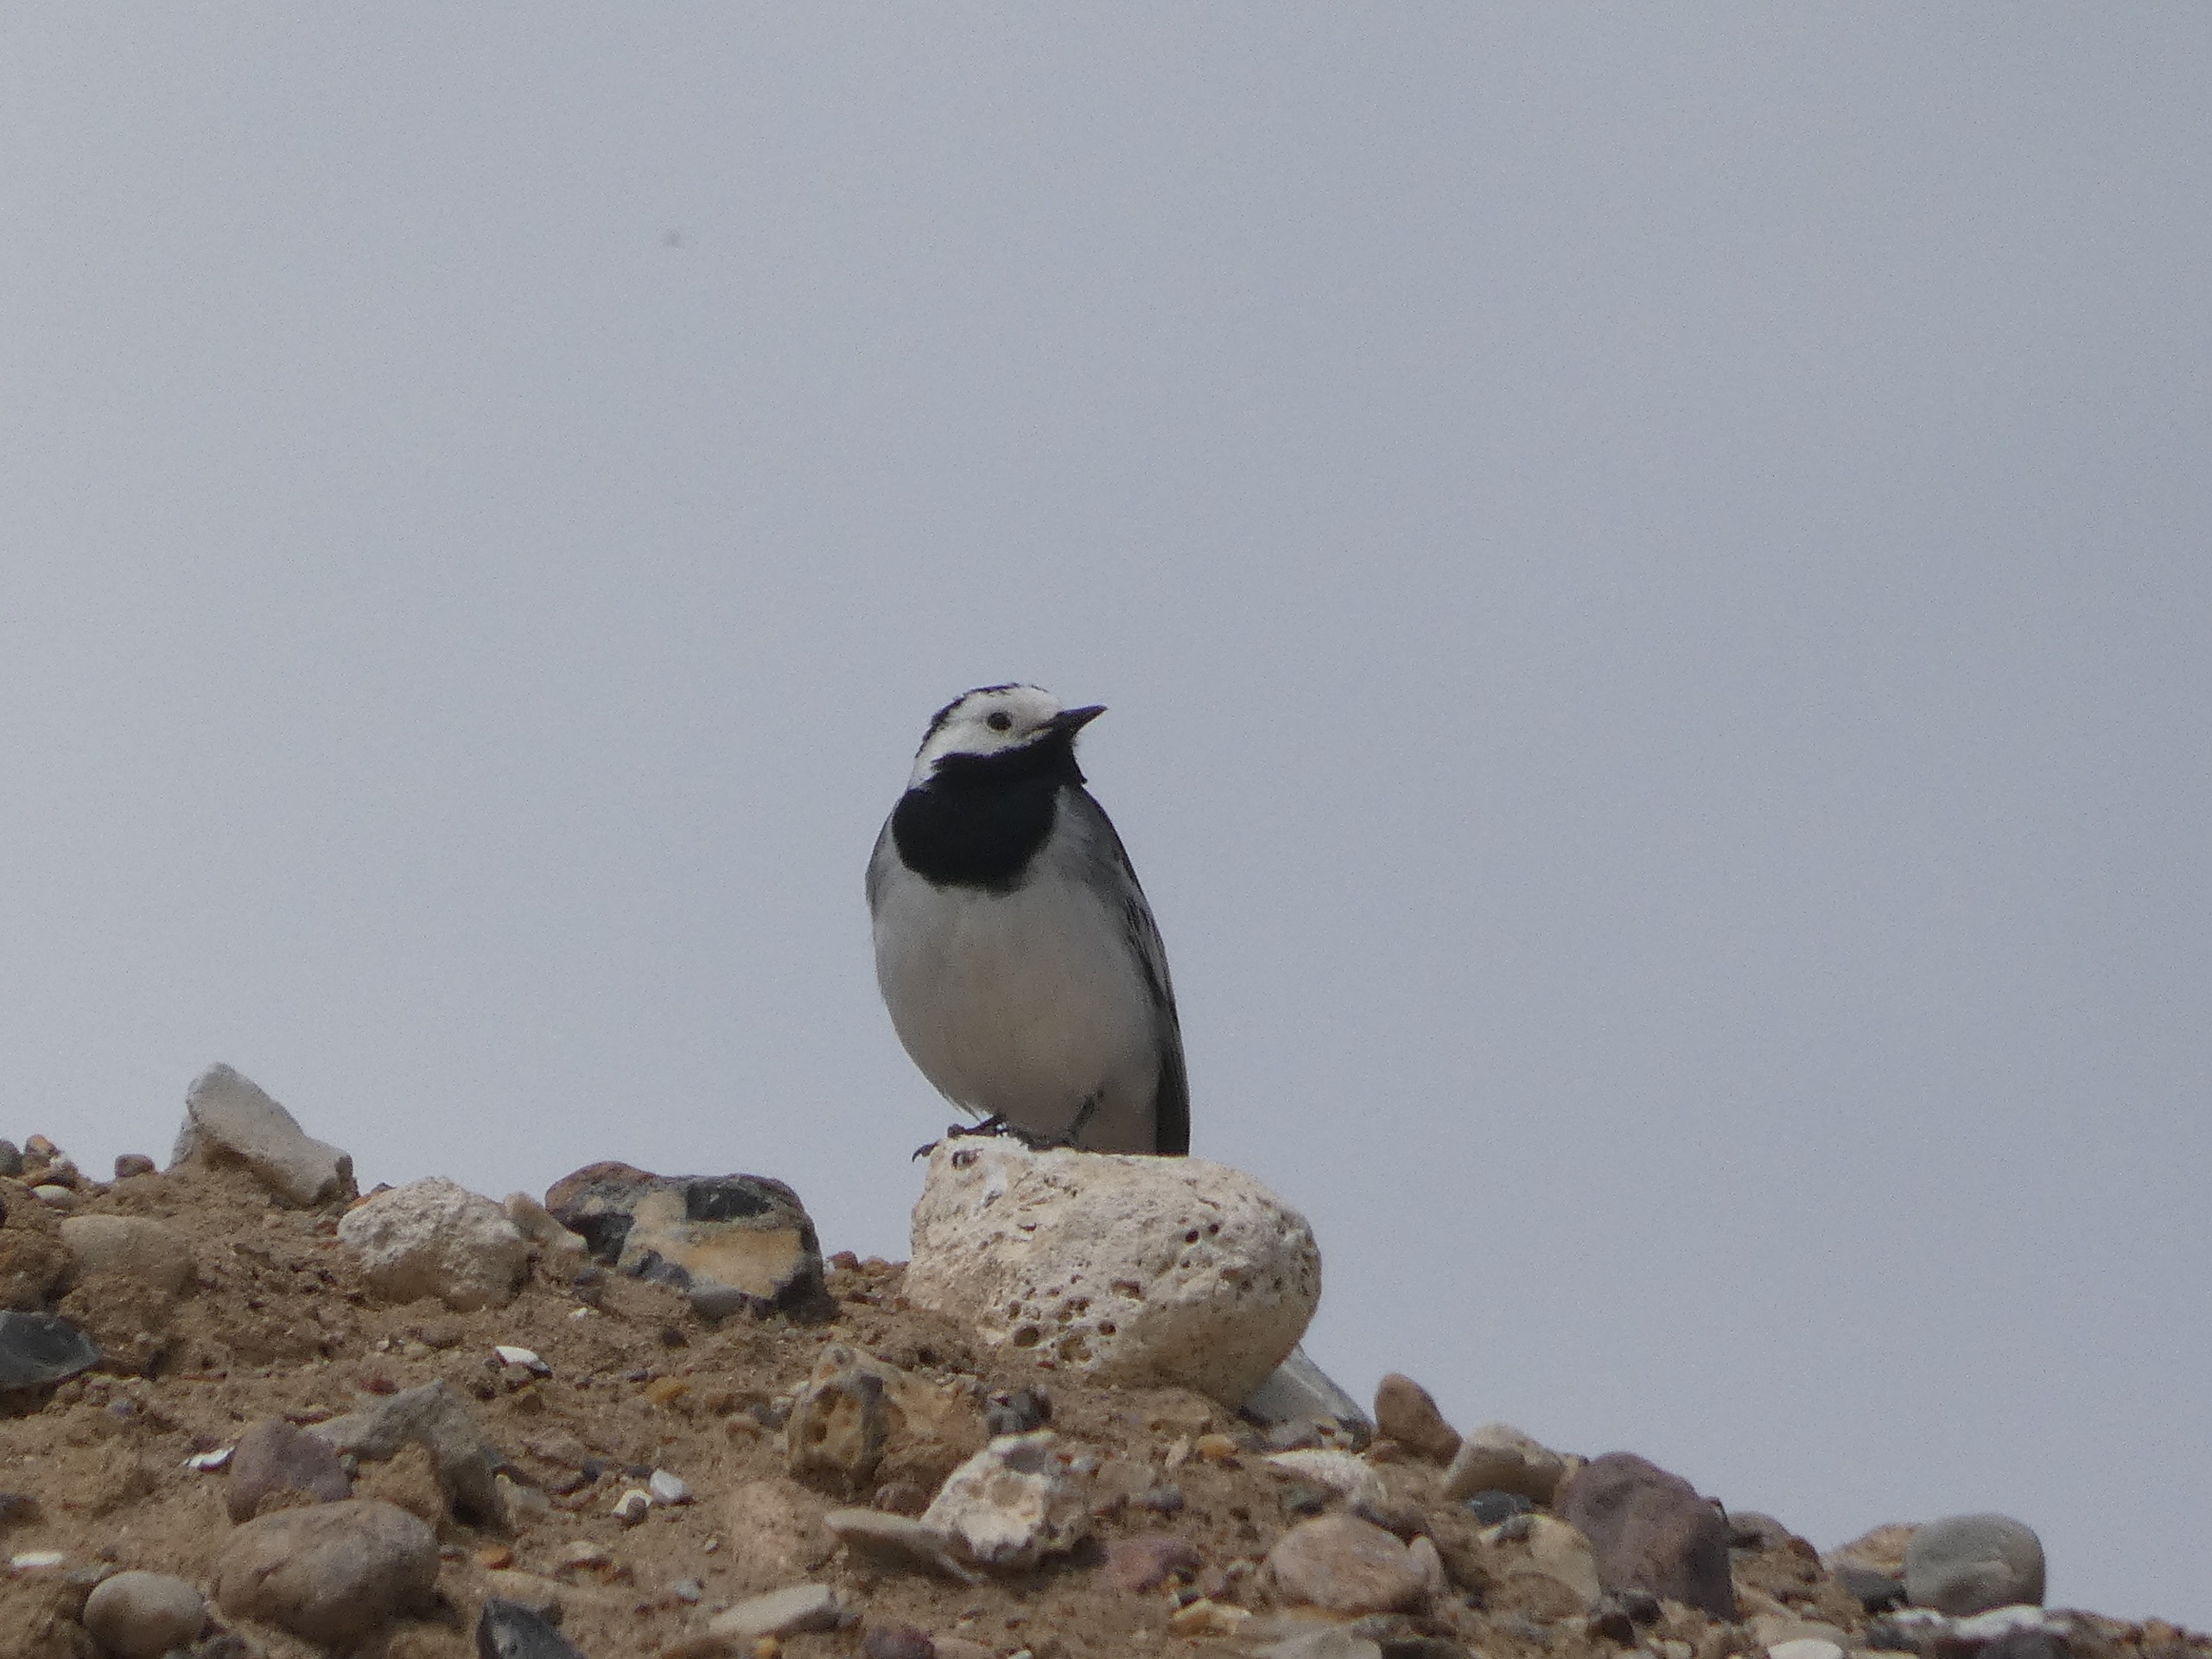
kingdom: Animalia
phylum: Chordata
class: Aves
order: Passeriformes
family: Motacillidae
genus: Motacilla
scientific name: Motacilla alba
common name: Hvid vipstjert
